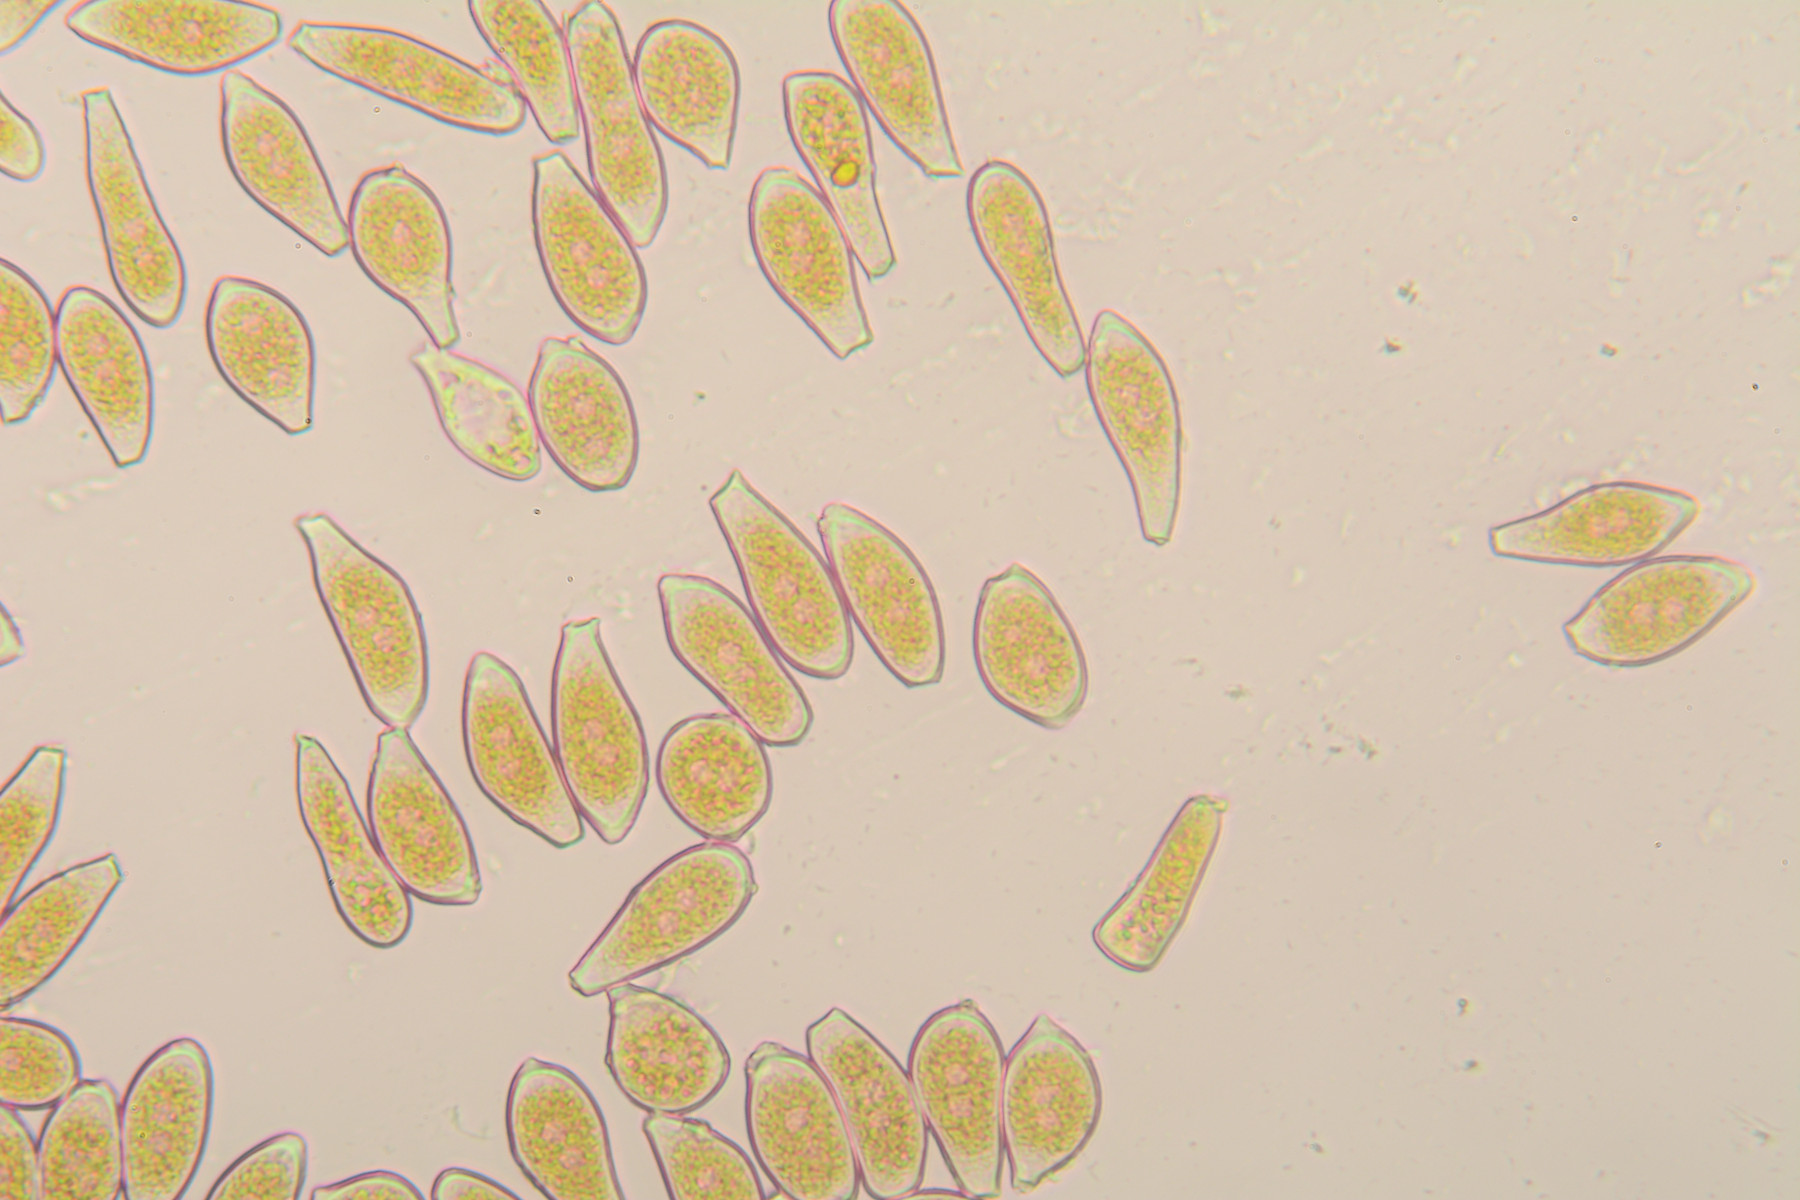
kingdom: Fungi
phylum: Basidiomycota
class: Pucciniomycetes
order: Pucciniales
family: Pucciniaceae
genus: Puccinia
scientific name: Puccinia luzulae
